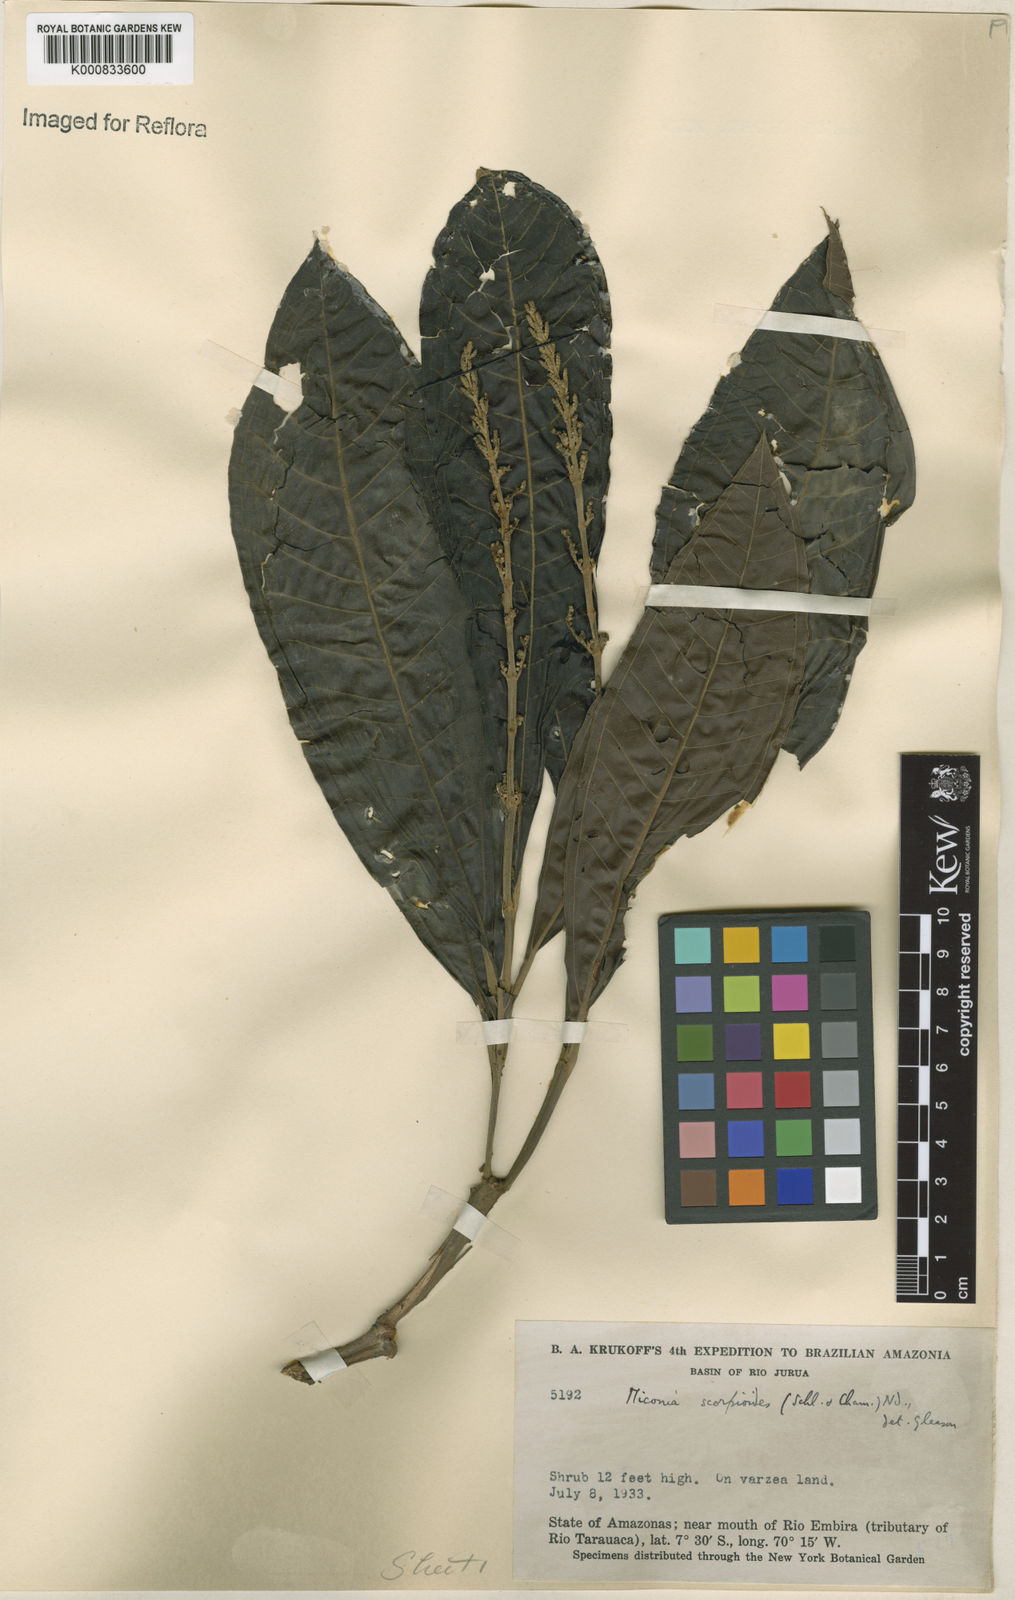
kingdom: Plantae
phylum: Tracheophyta
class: Magnoliopsida
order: Myrtales
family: Melastomataceae
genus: Miconia
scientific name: Miconia trinervia
